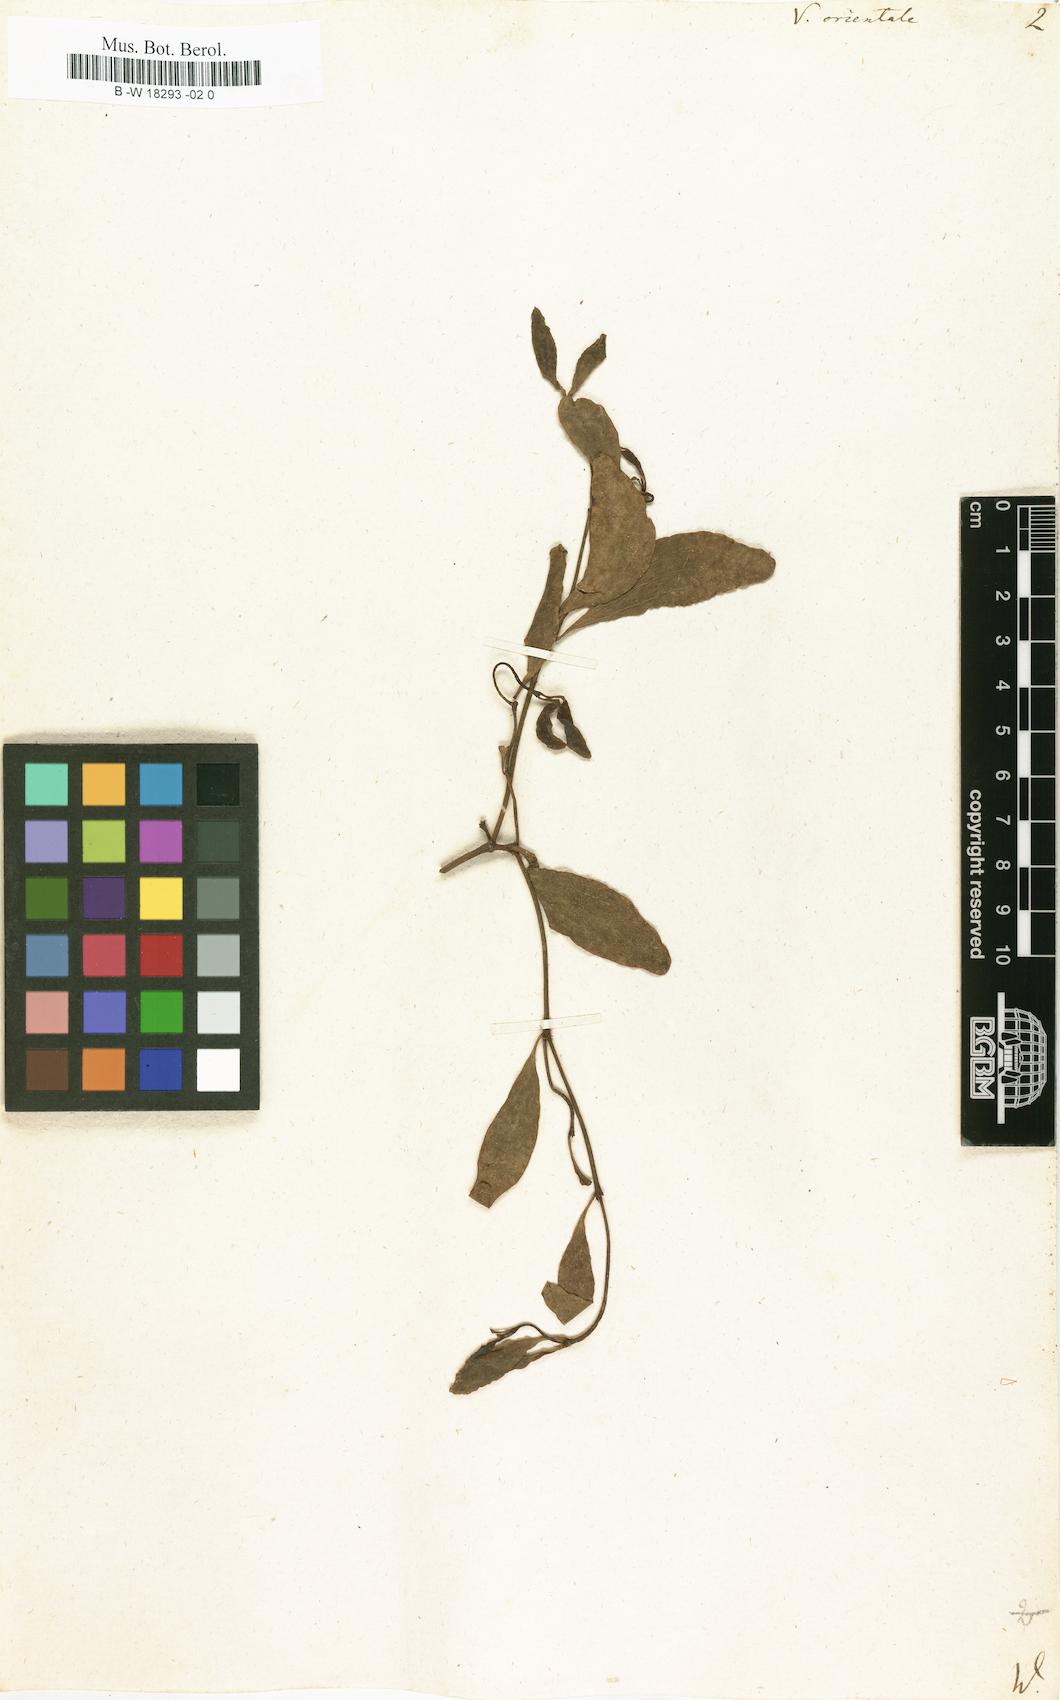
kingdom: Plantae
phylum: Tracheophyta
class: Magnoliopsida
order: Santalales
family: Viscaceae
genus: Viscum
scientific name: Viscum orientale
